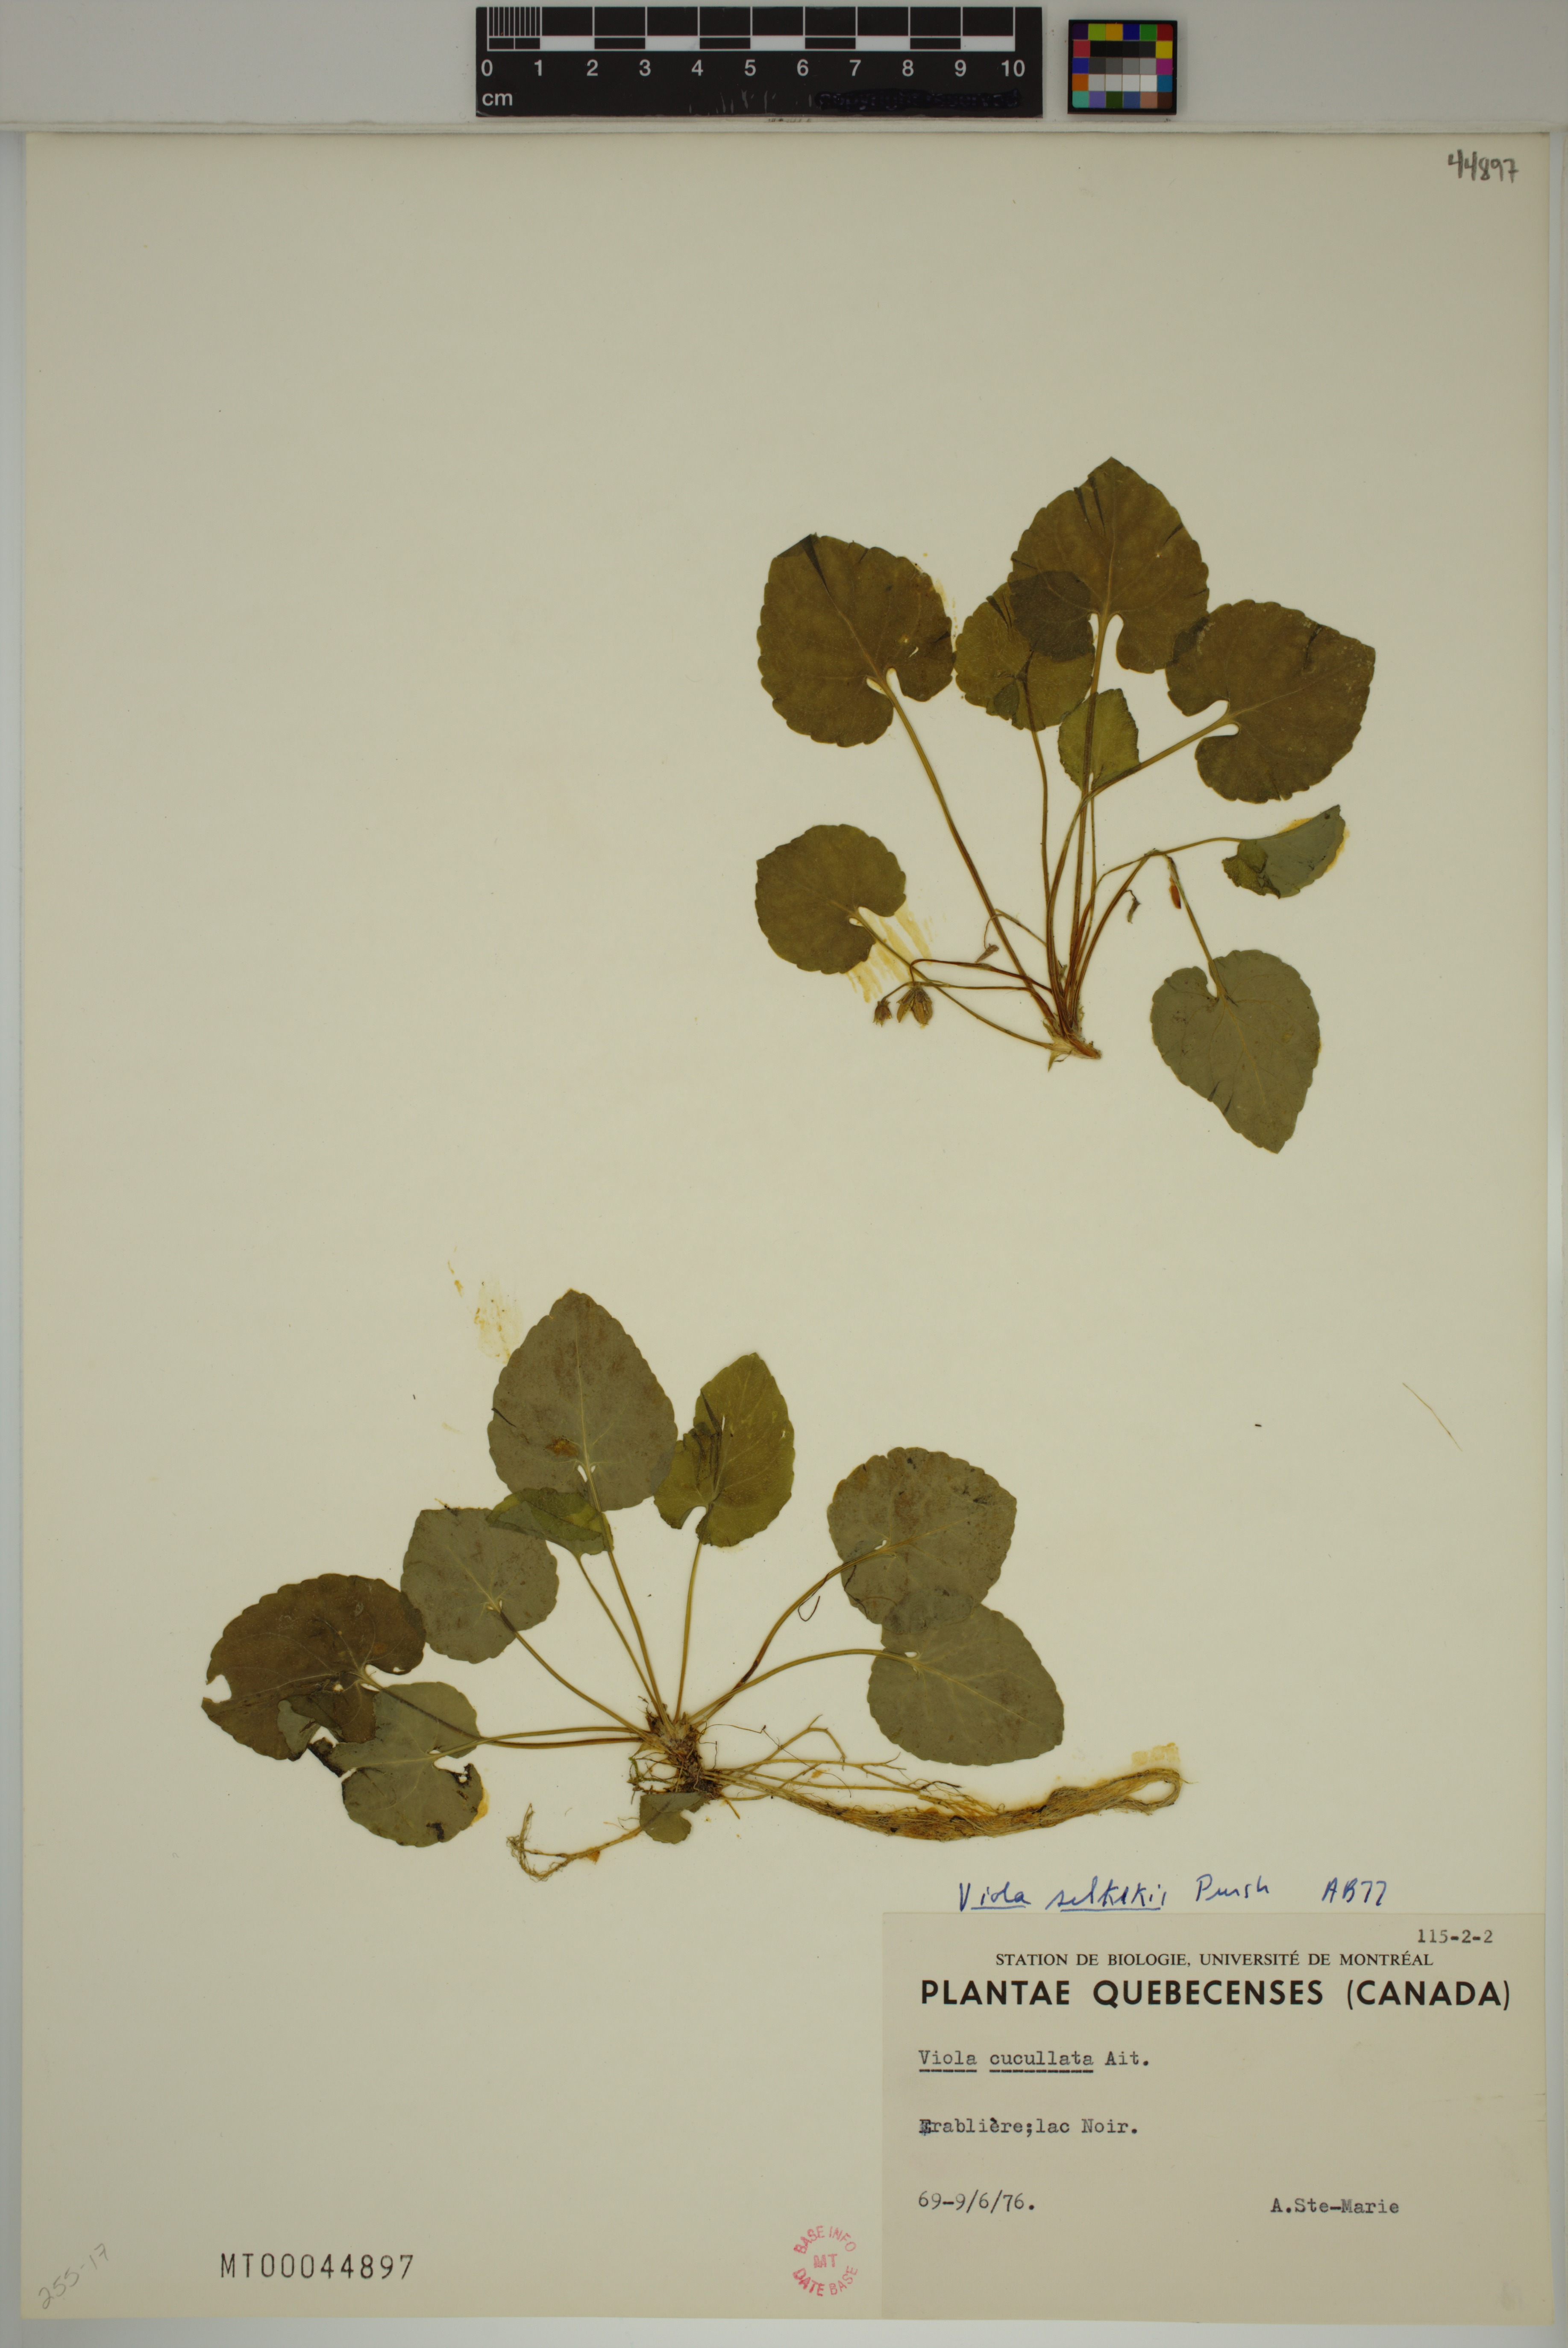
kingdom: Plantae
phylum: Tracheophyta
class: Magnoliopsida
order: Malpighiales
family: Violaceae
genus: Viola
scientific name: Viola selkirkii
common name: Selkirk's violet
